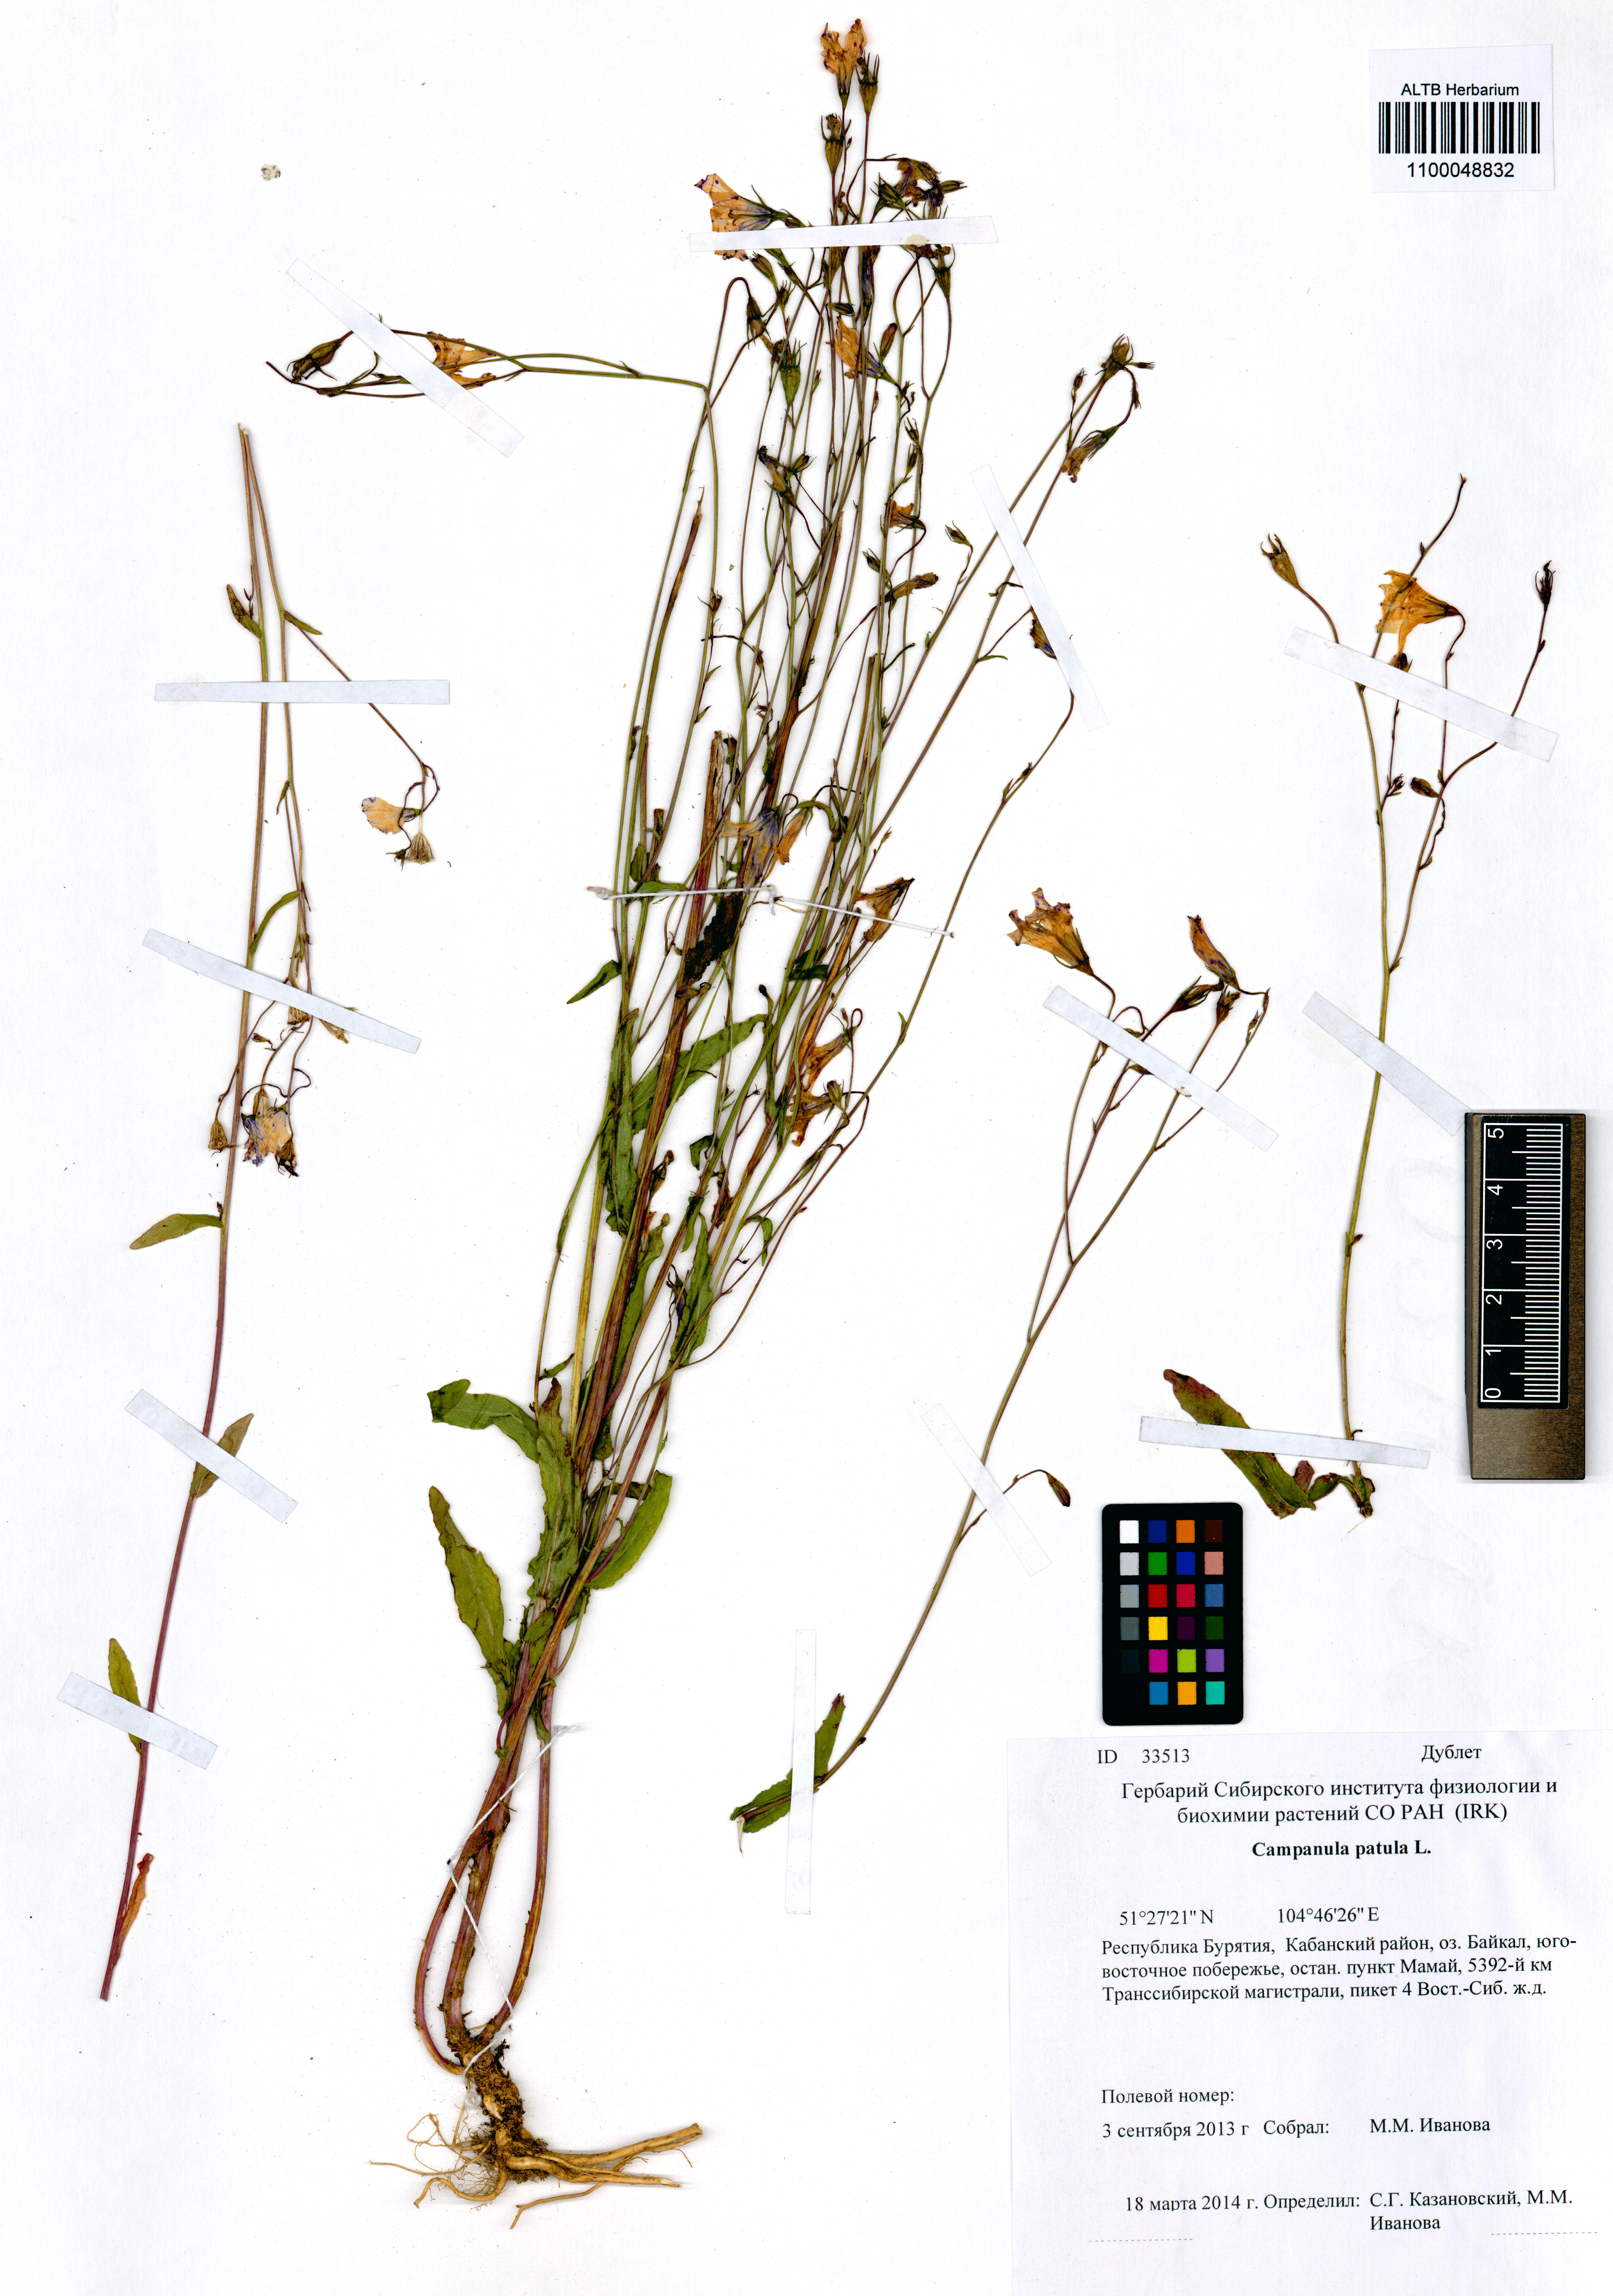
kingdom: Plantae
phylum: Tracheophyta
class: Magnoliopsida
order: Asterales
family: Campanulaceae
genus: Campanula
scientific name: Campanula patula
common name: Spreading bellflower
